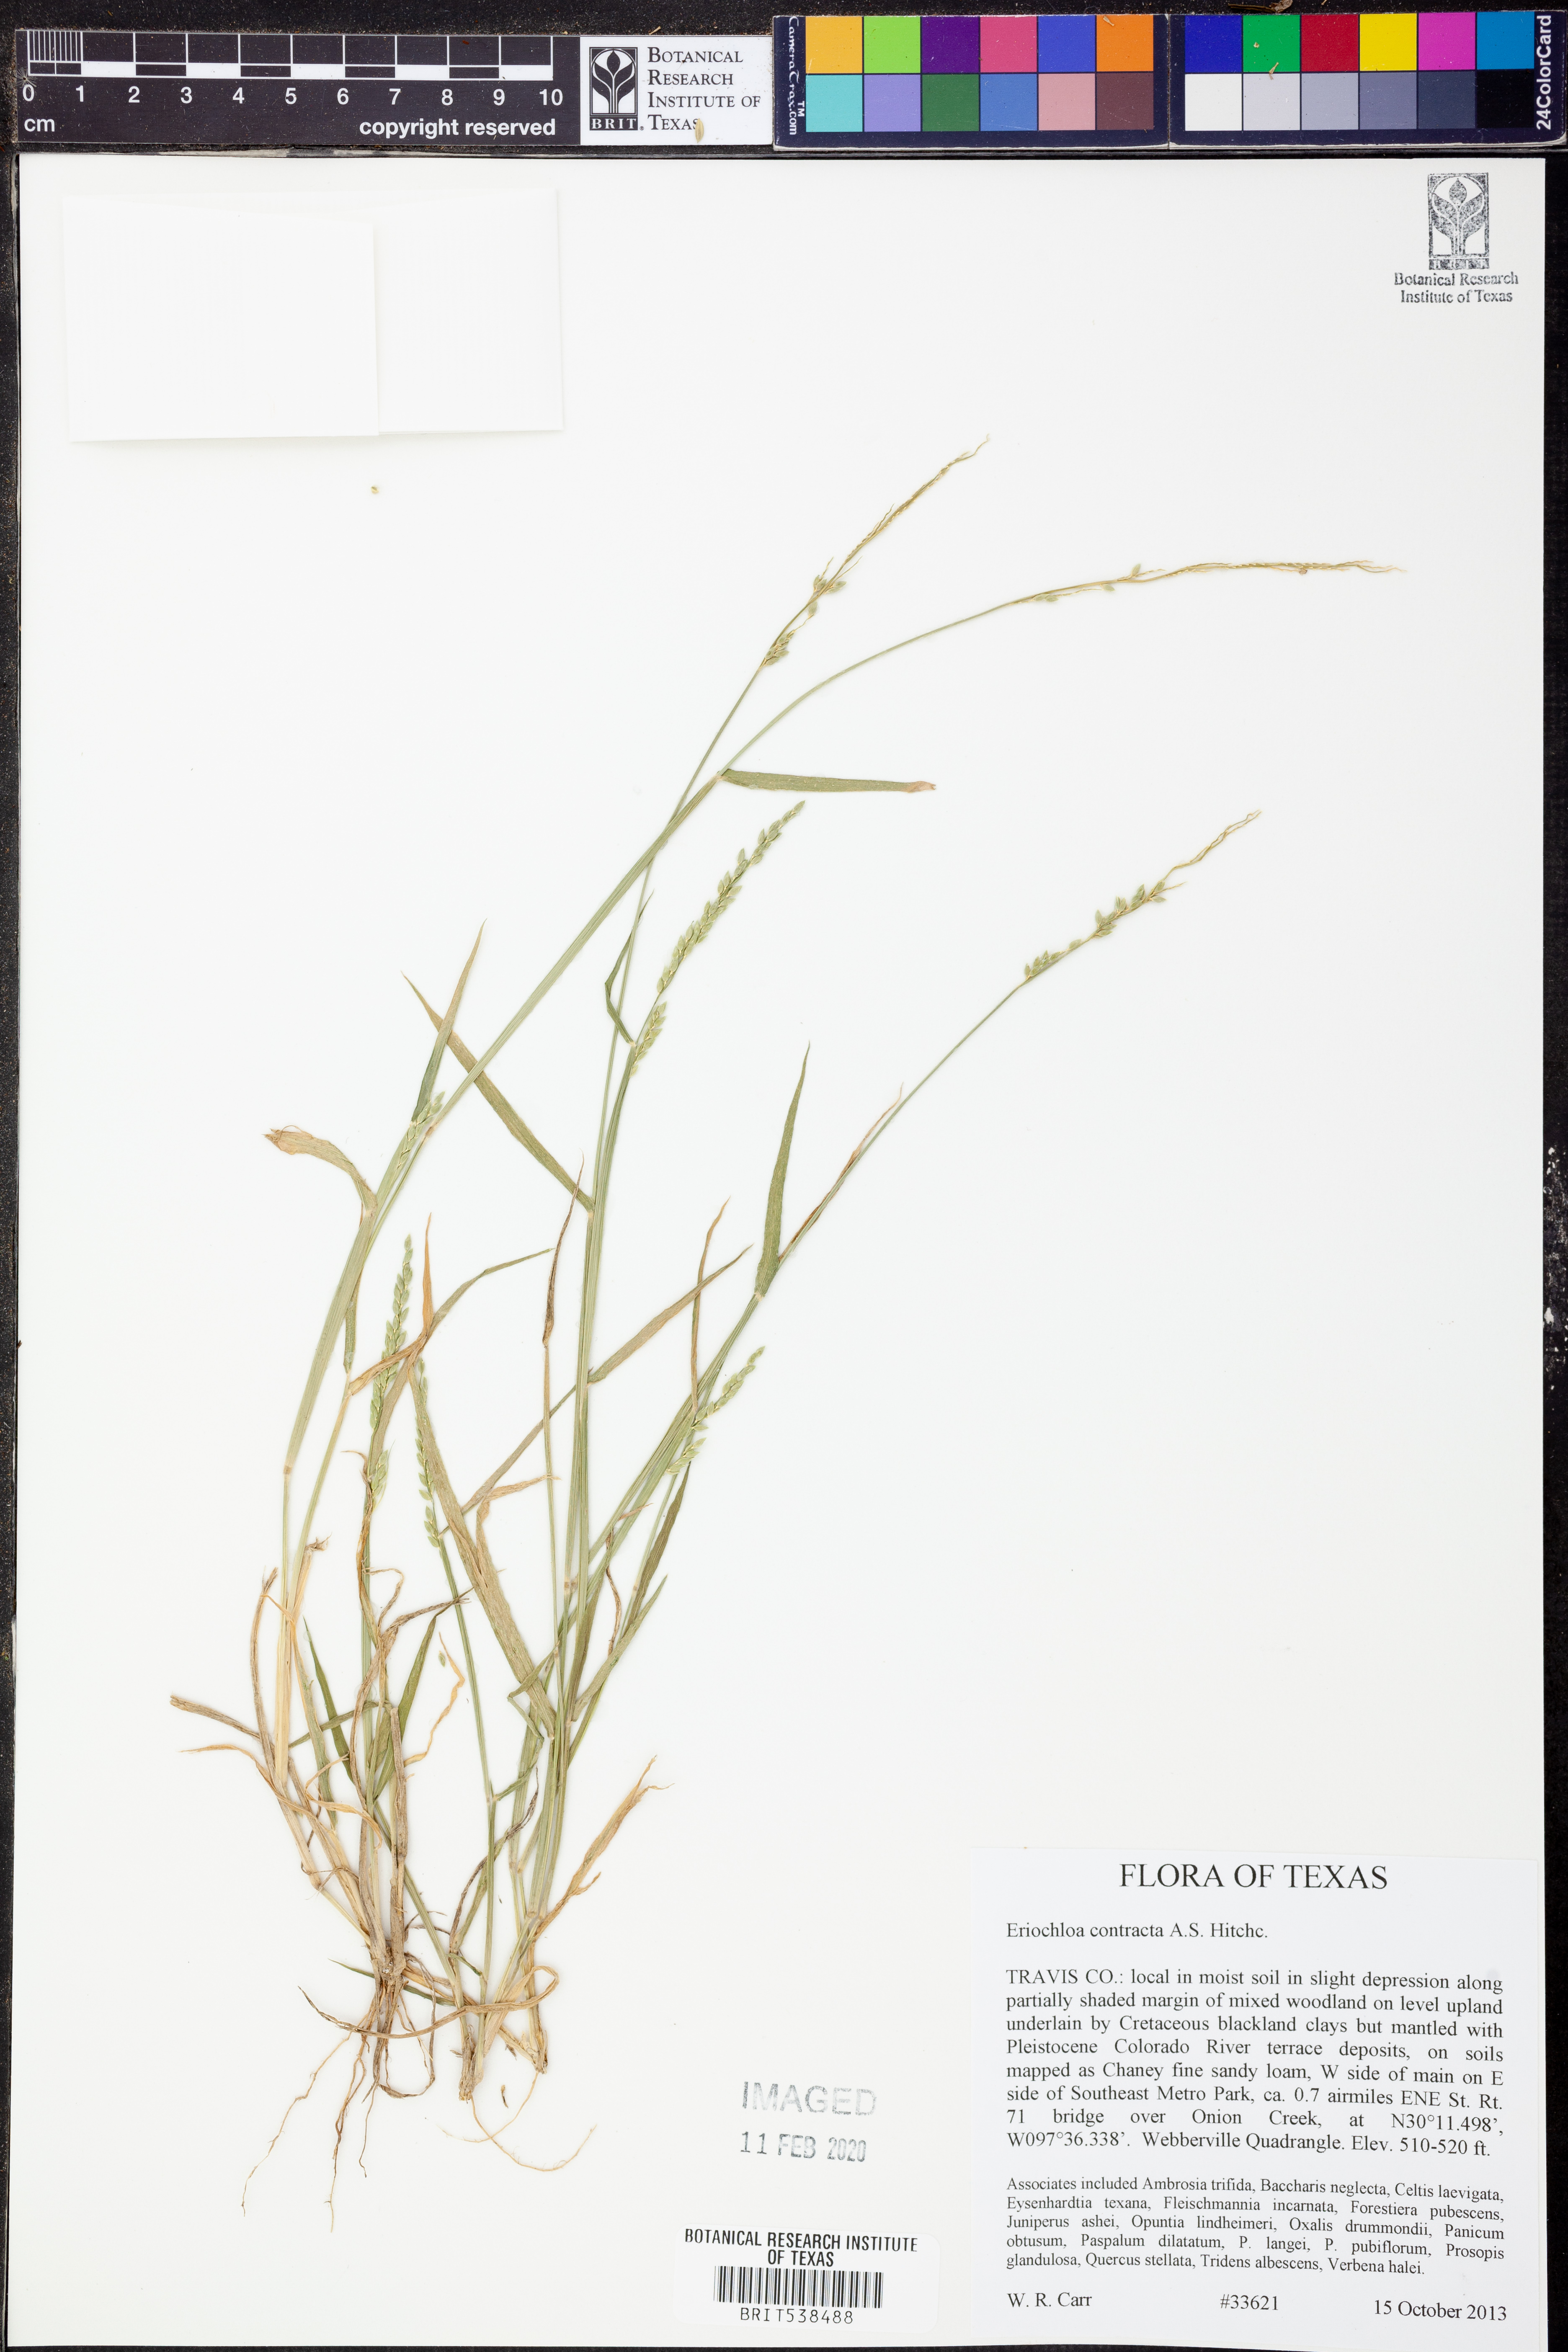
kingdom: Plantae
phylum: Tracheophyta
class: Liliopsida
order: Poales
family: Poaceae
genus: Eriochloa
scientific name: Eriochloa contracta
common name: Prairie cup grass
